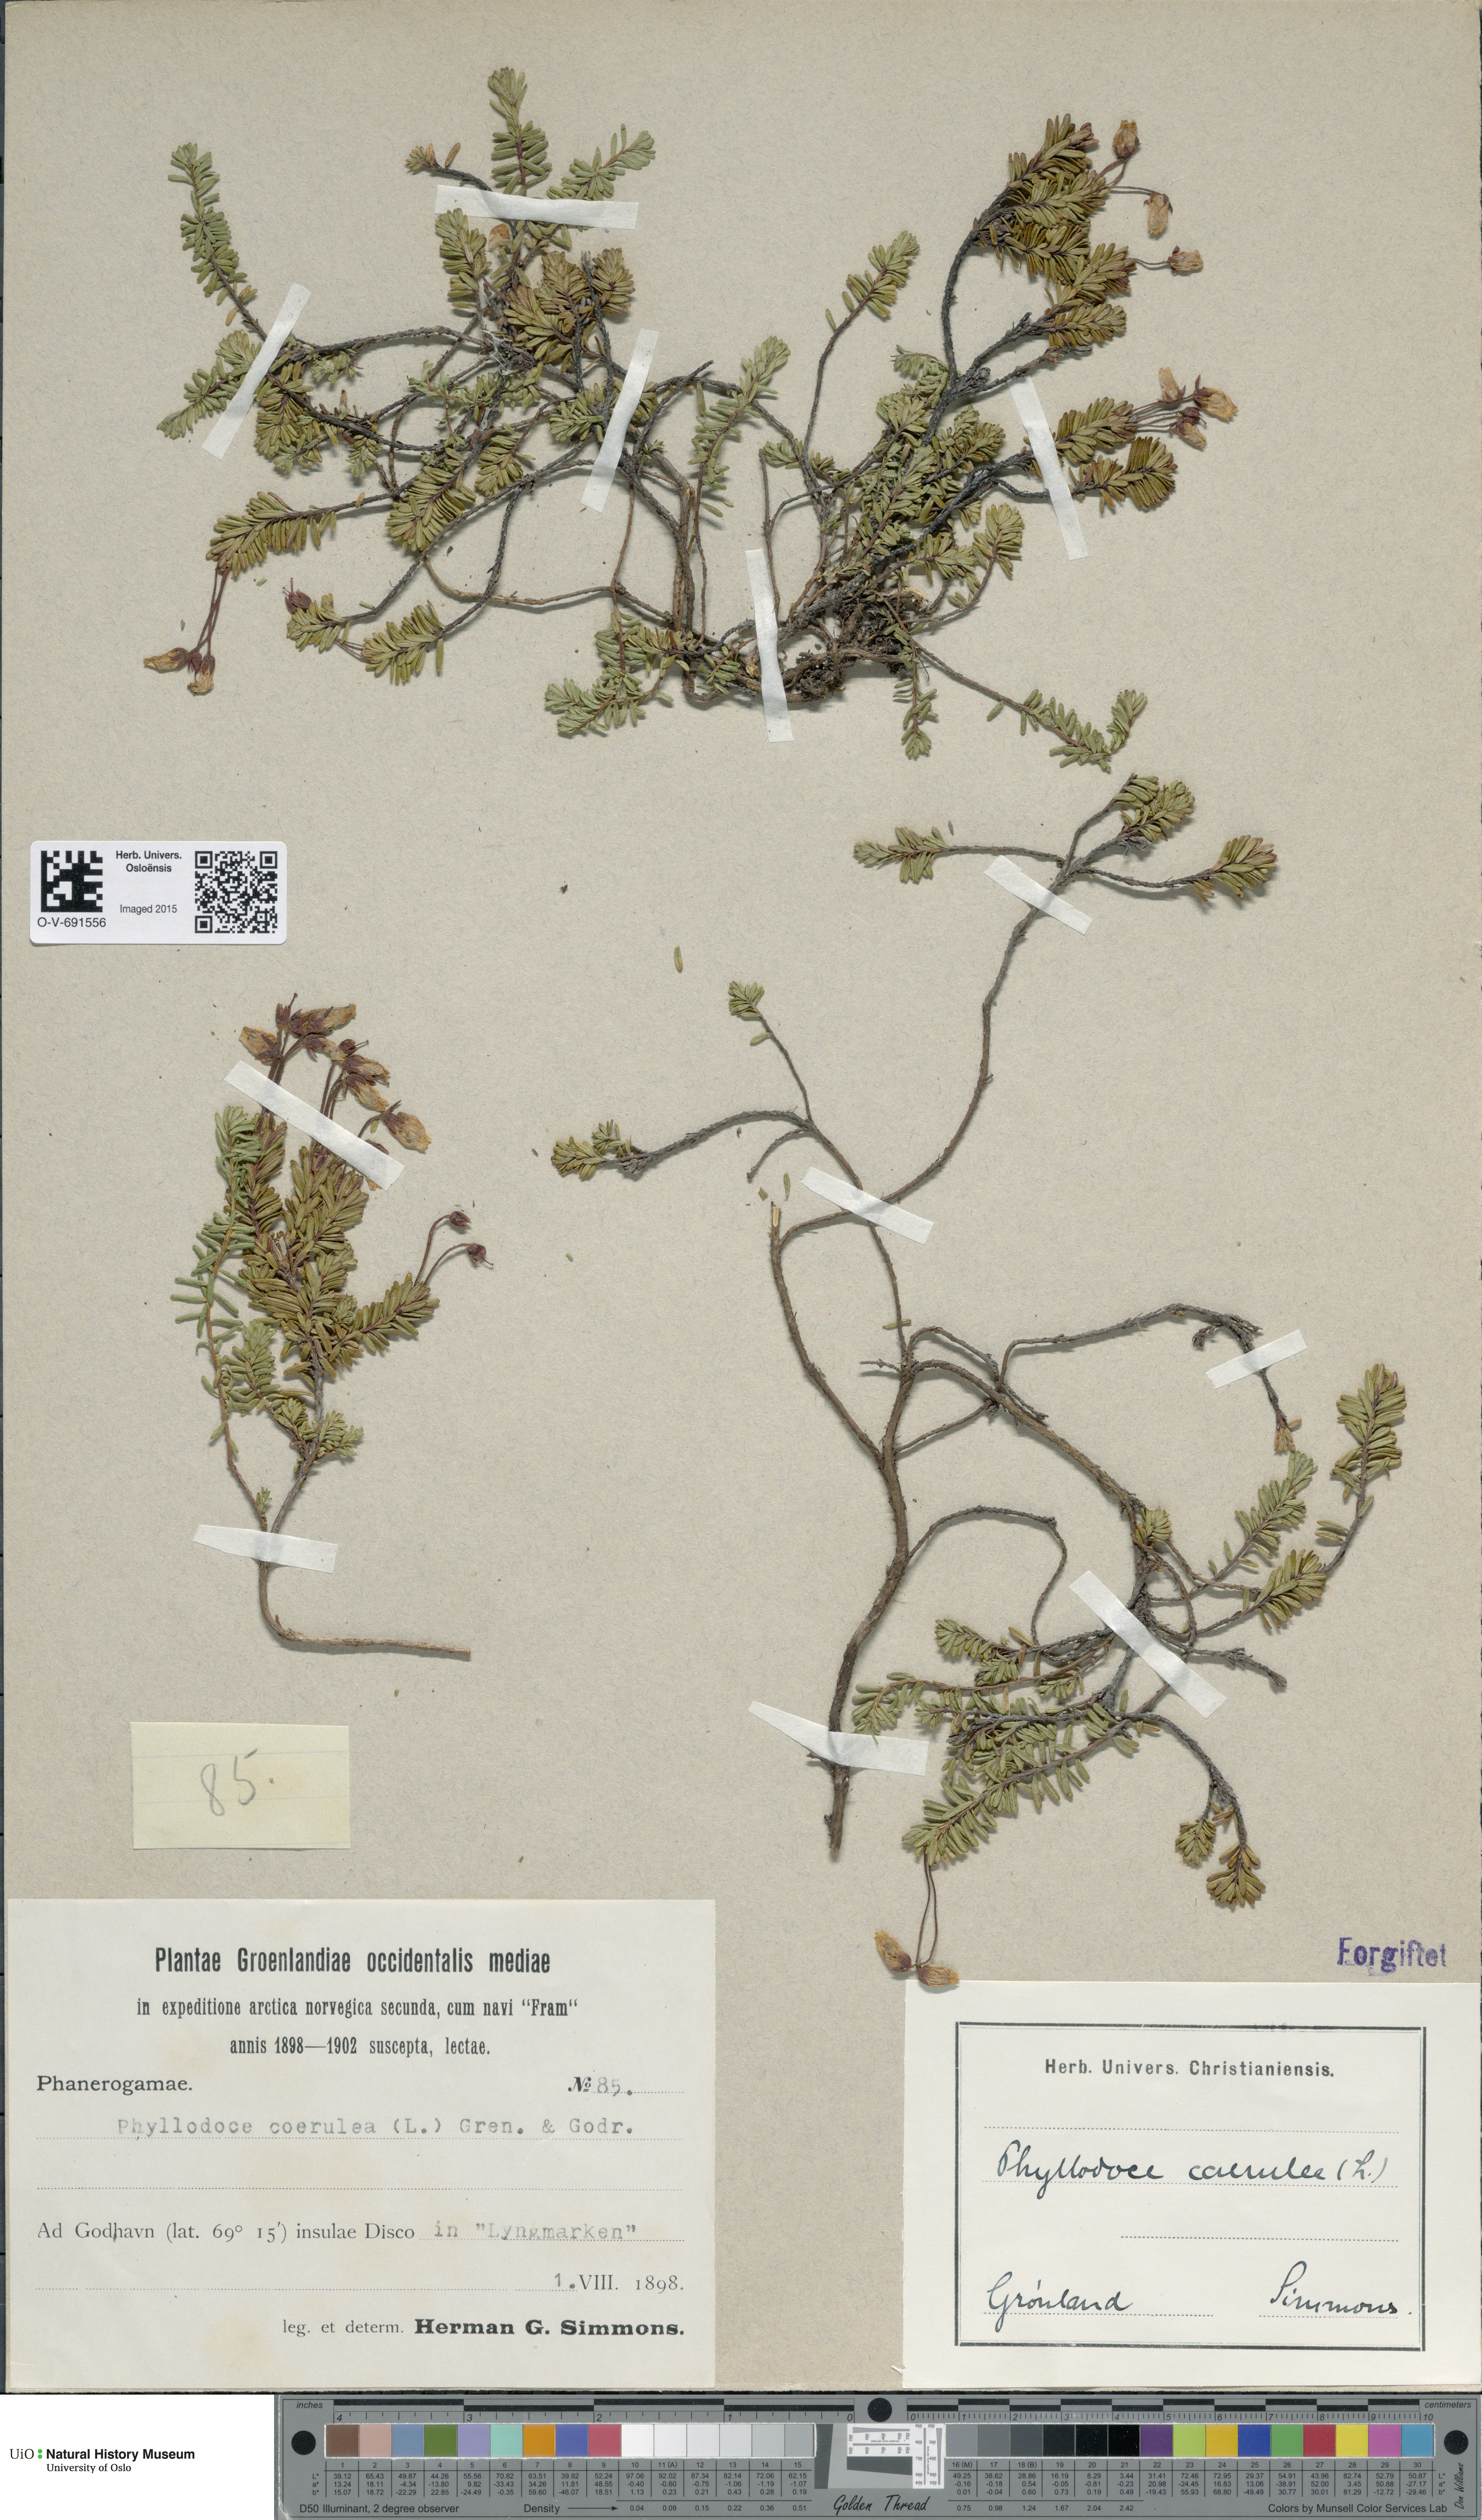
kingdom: Plantae
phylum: Tracheophyta
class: Magnoliopsida
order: Ericales
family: Ericaceae
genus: Phyllodoce
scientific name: Phyllodoce caerulea
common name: Blue heath
